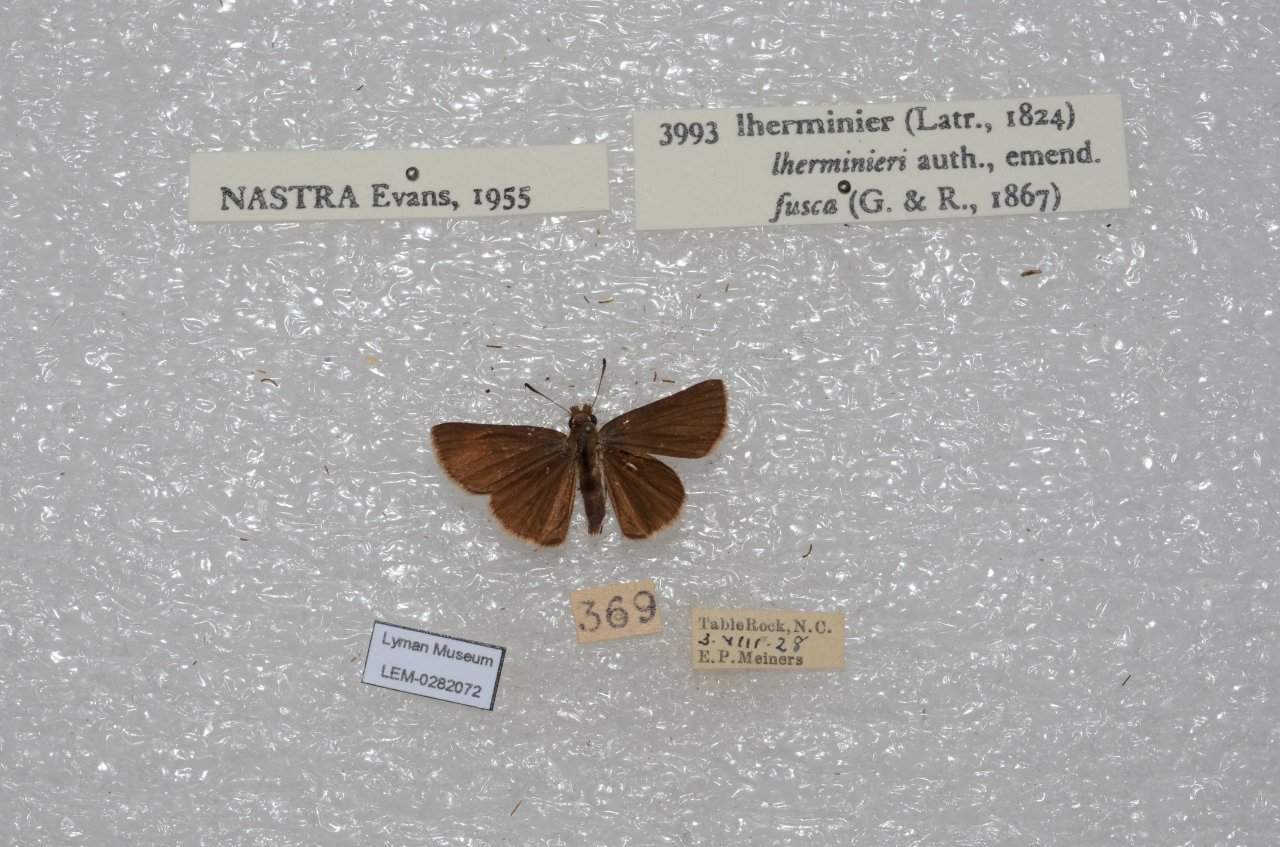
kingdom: Animalia
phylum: Arthropoda
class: Insecta
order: Lepidoptera
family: Hesperiidae
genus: Nastra
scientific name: Nastra lherminier
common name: Swarthy Skipper
